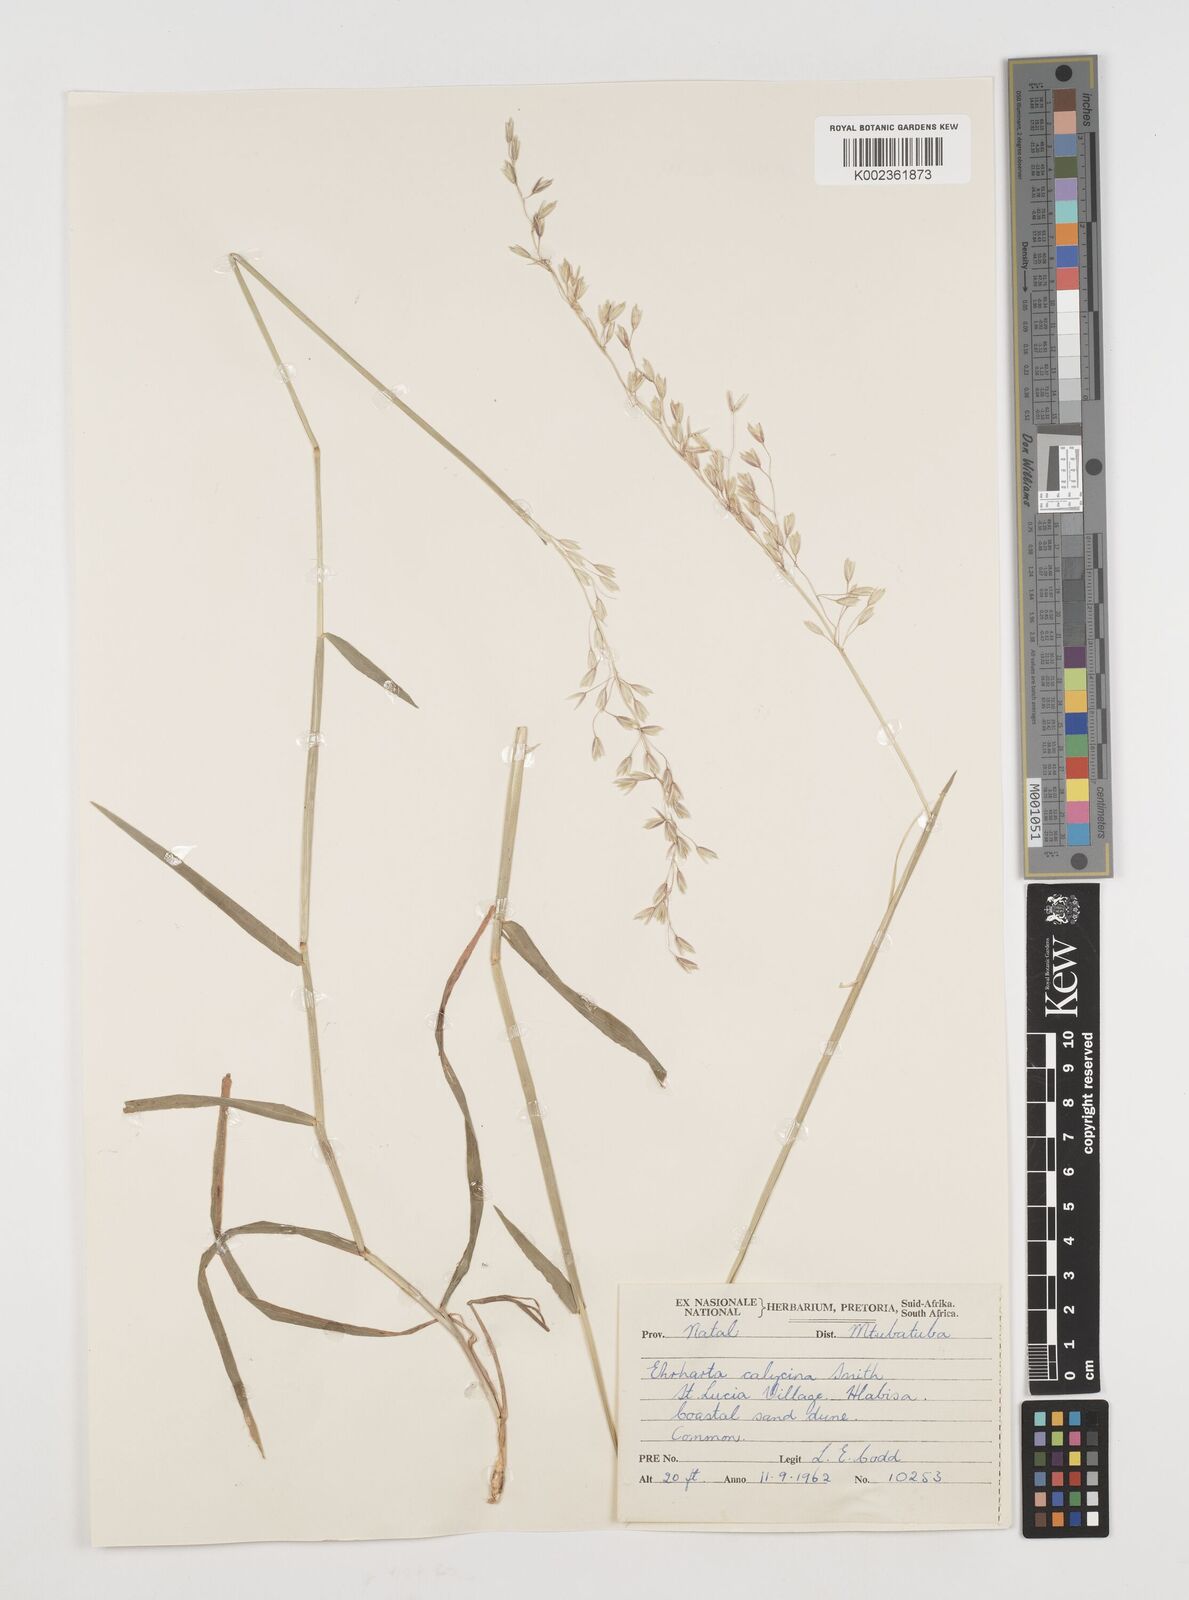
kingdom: Plantae
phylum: Tracheophyta
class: Liliopsida
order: Poales
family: Poaceae
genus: Ehrharta
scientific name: Ehrharta
